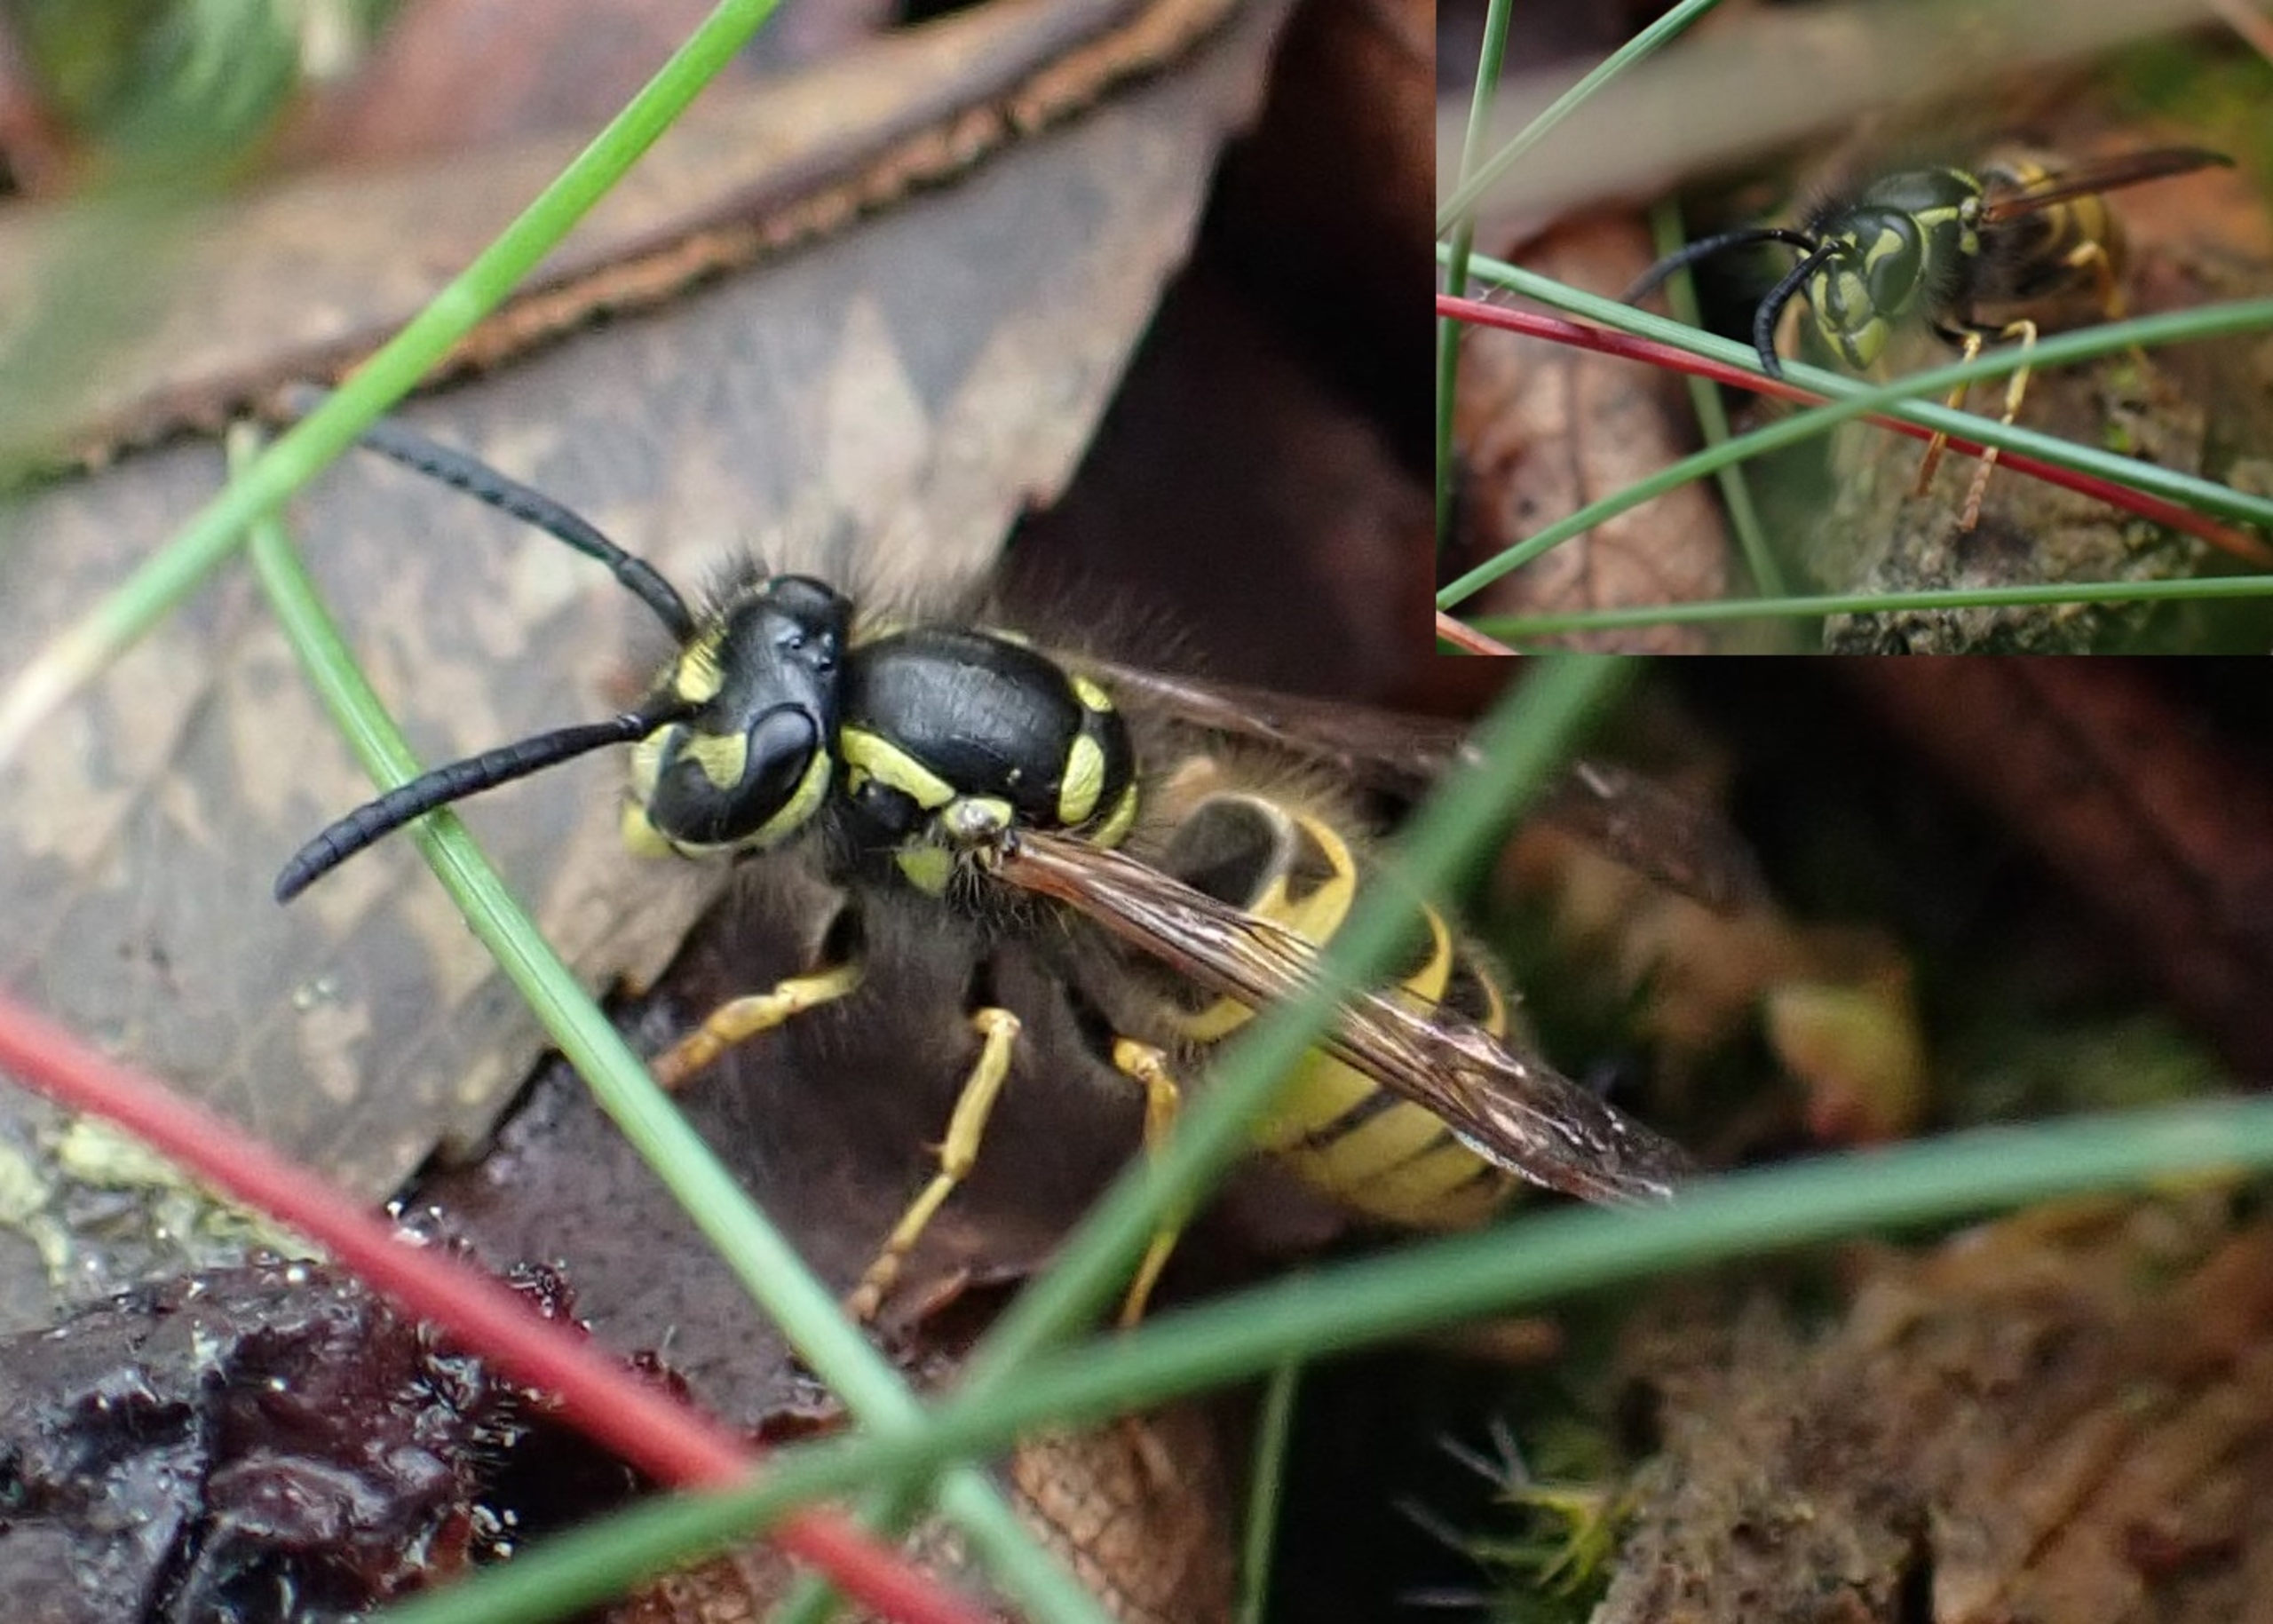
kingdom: Animalia
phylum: Arthropoda
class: Insecta
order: Hymenoptera
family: Vespidae
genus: Vespula
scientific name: Vespula vulgaris
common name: Almindelig gedehams
